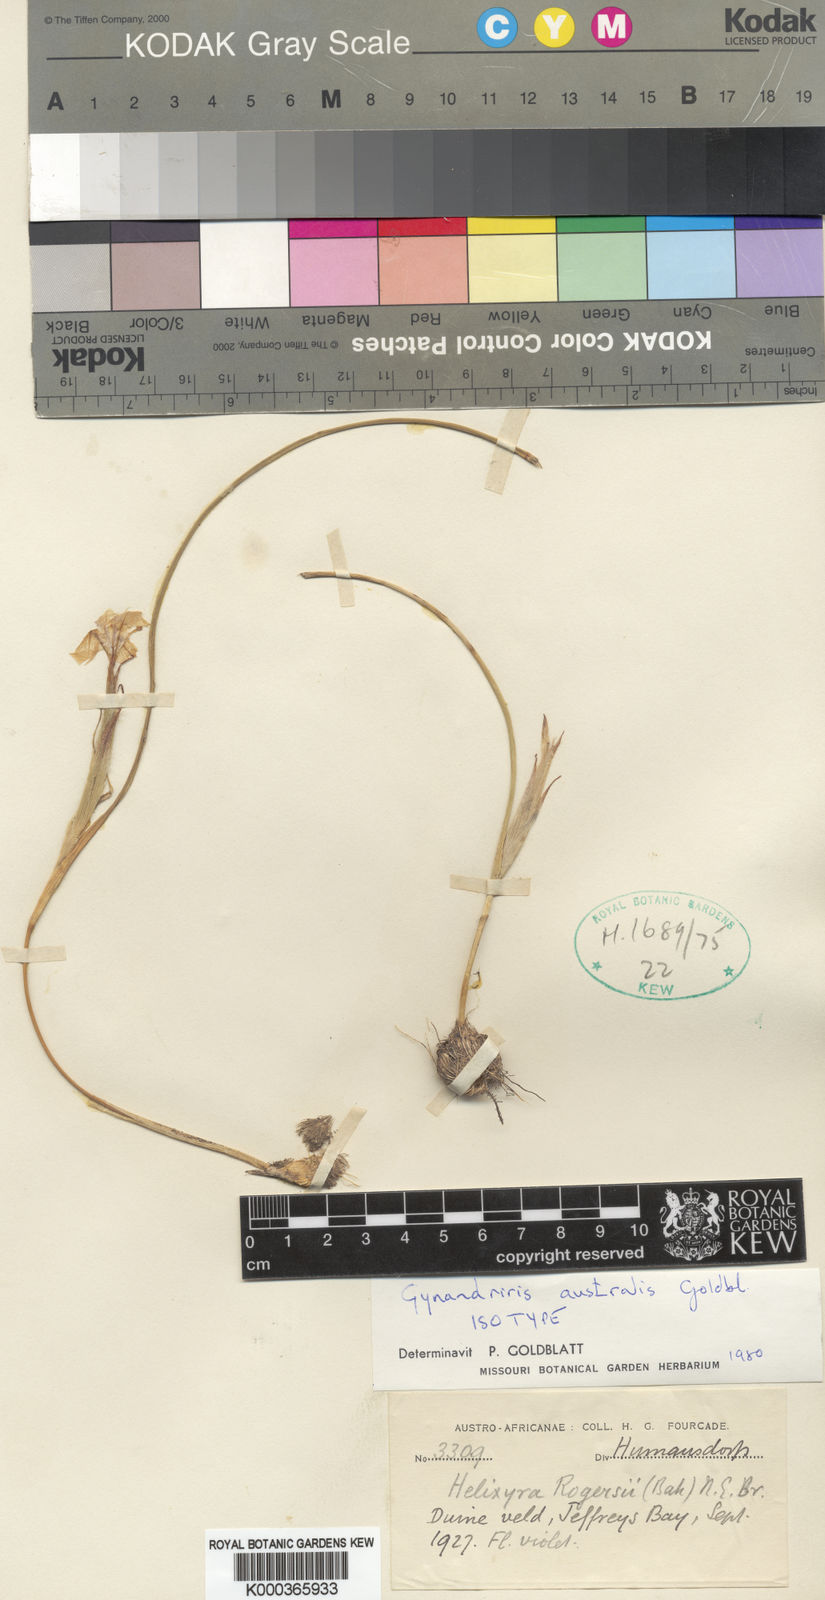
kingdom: Plantae
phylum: Tracheophyta
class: Liliopsida
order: Asparagales
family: Iridaceae
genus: Moraea
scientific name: Moraea australis
